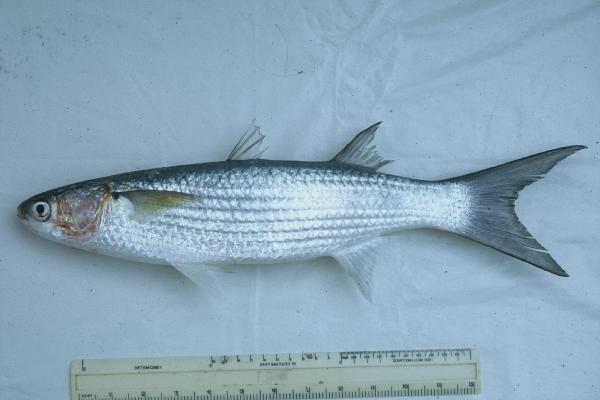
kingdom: Animalia
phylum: Chordata
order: Mugiliformes
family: Mugilidae
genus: Crenimugil
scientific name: Crenimugil crenilabis
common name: Fringelip mullet
